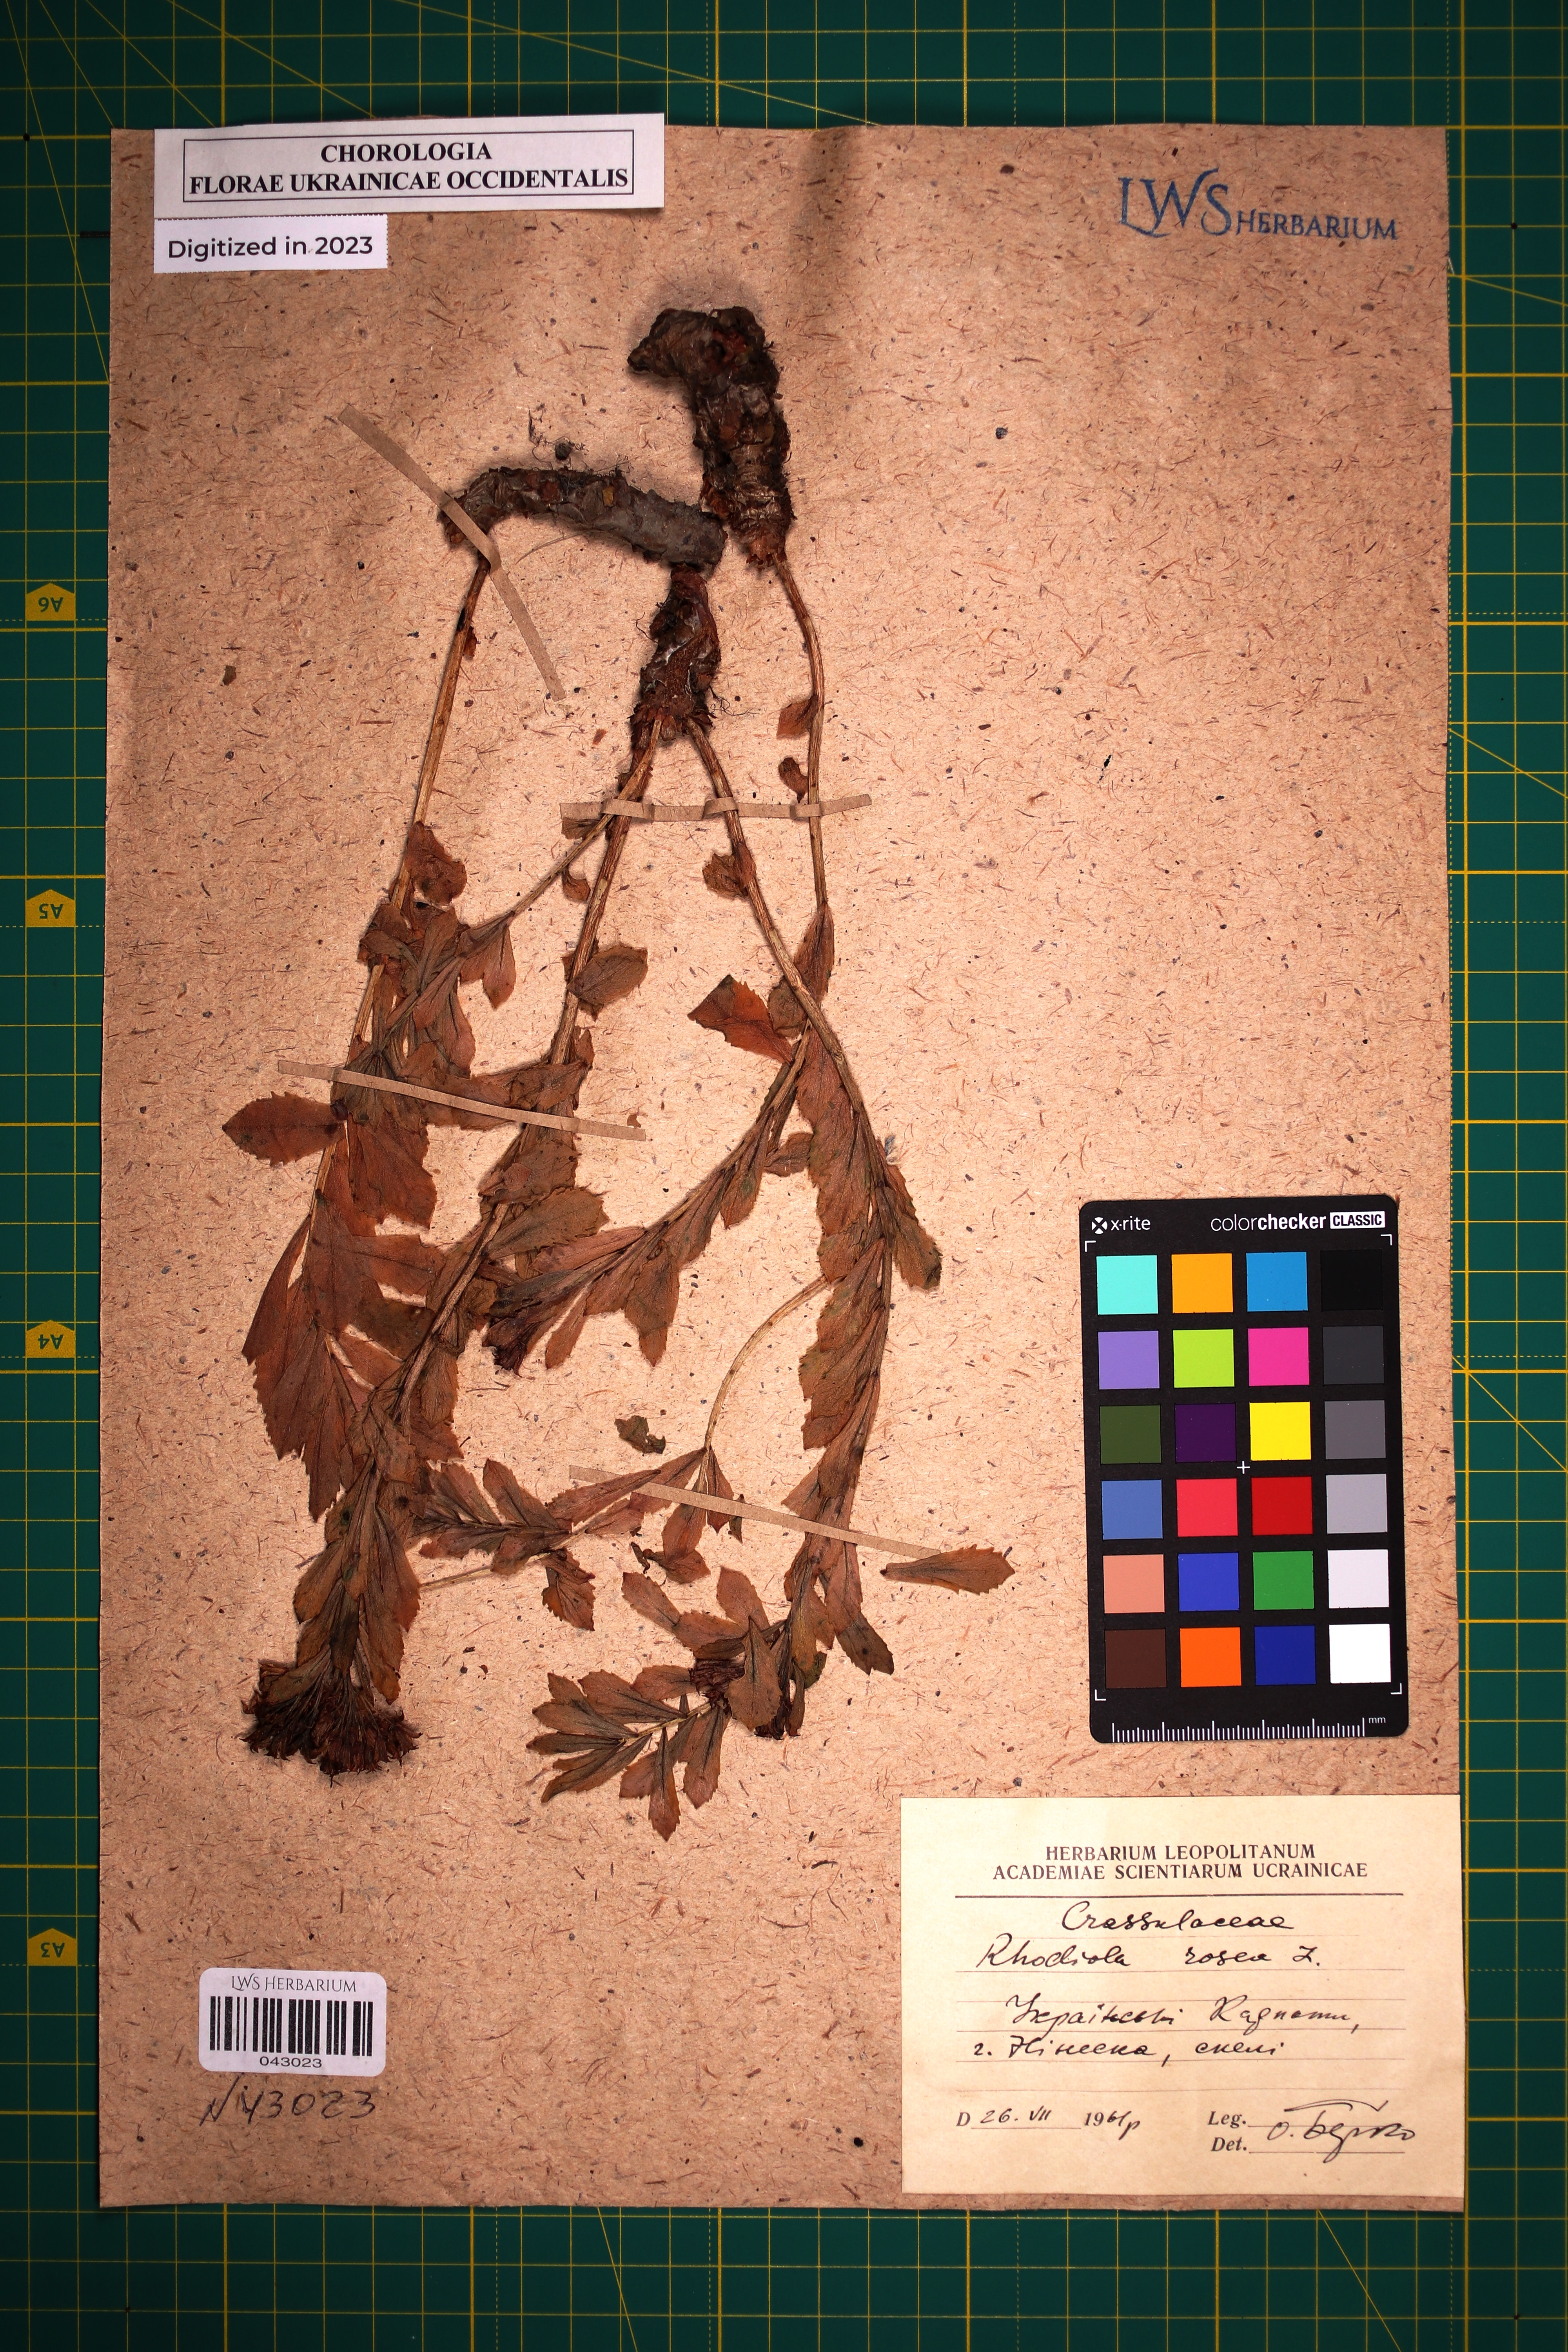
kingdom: Plantae
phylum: Tracheophyta
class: Magnoliopsida
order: Saxifragales
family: Crassulaceae
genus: Rhodiola
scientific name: Rhodiola rosea
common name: Roseroot
